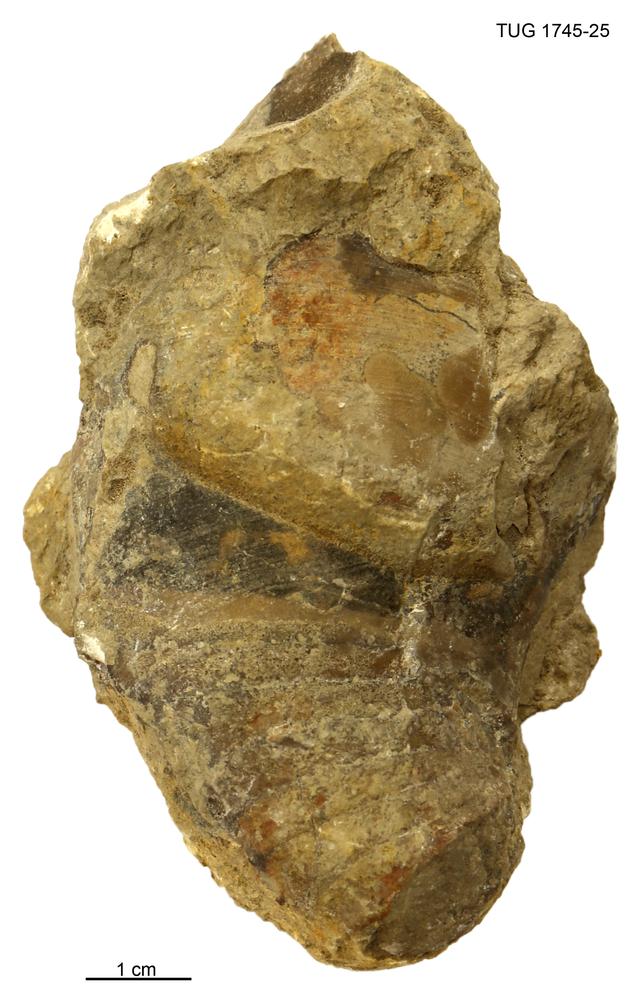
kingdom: Animalia
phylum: Mollusca
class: Cephalopoda
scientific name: Cephalopoda
